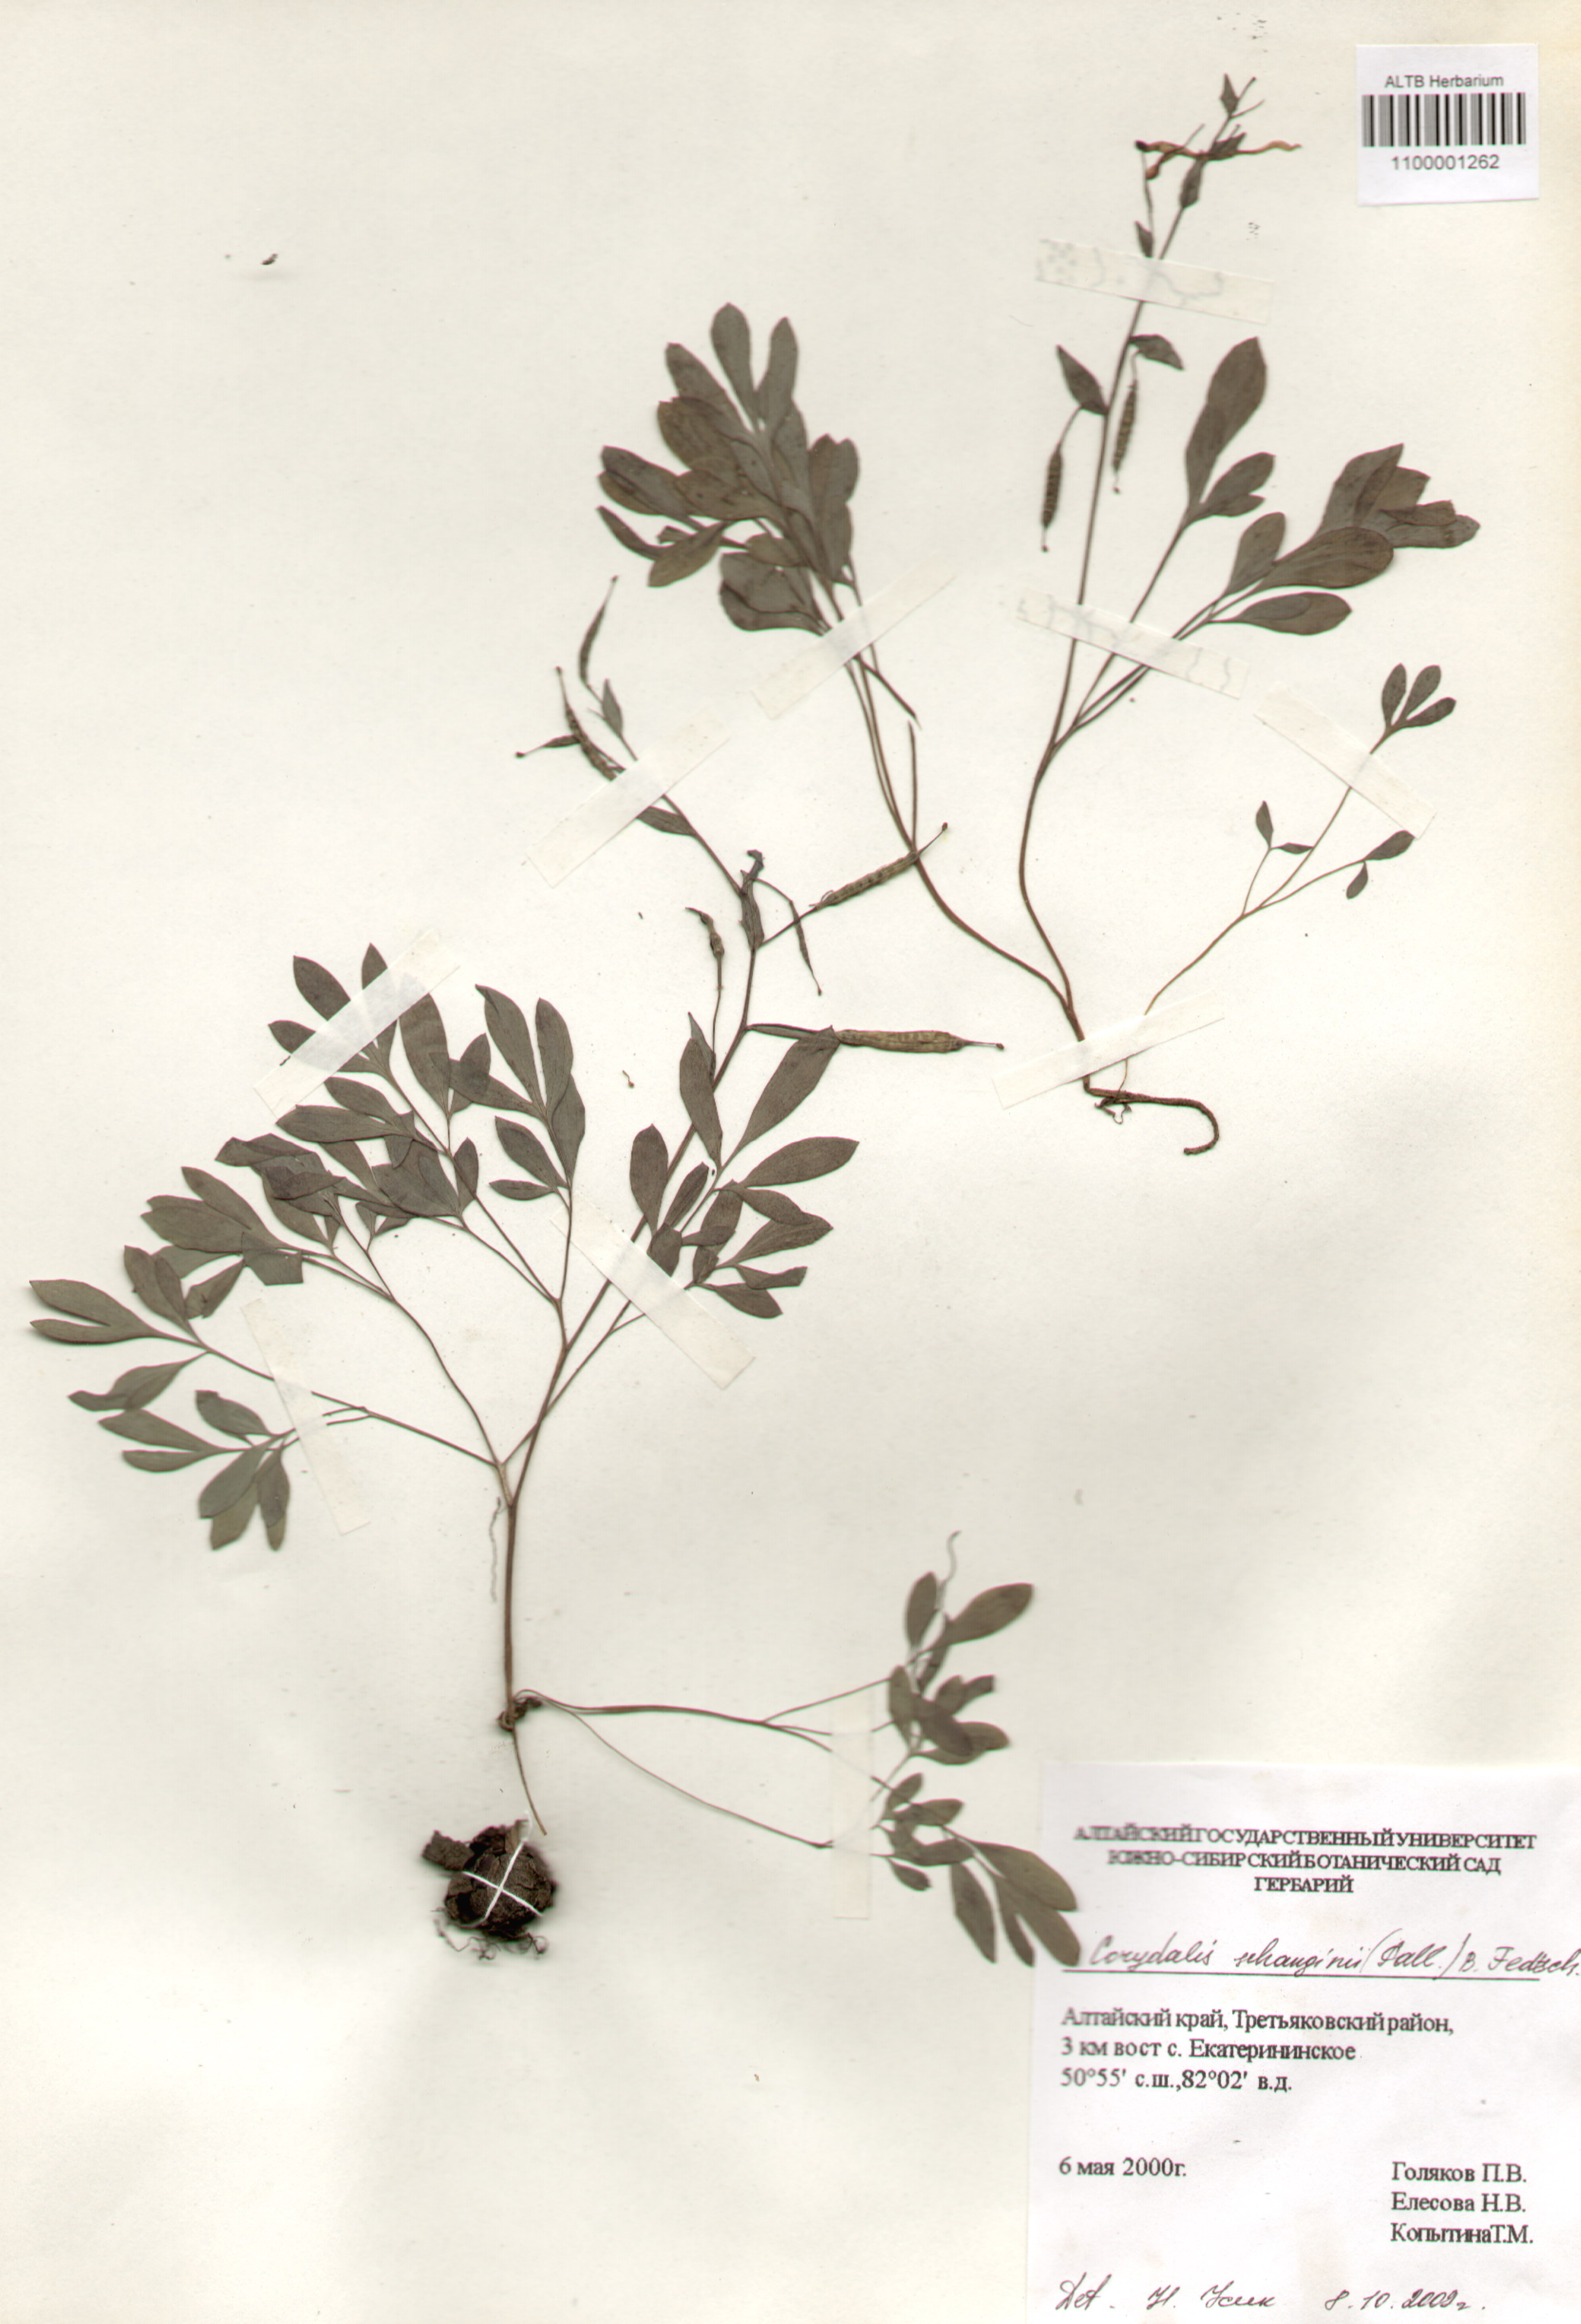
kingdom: Plantae
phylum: Tracheophyta
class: Magnoliopsida
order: Ranunculales
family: Papaveraceae
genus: Corydalis
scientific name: Corydalis schanginii
